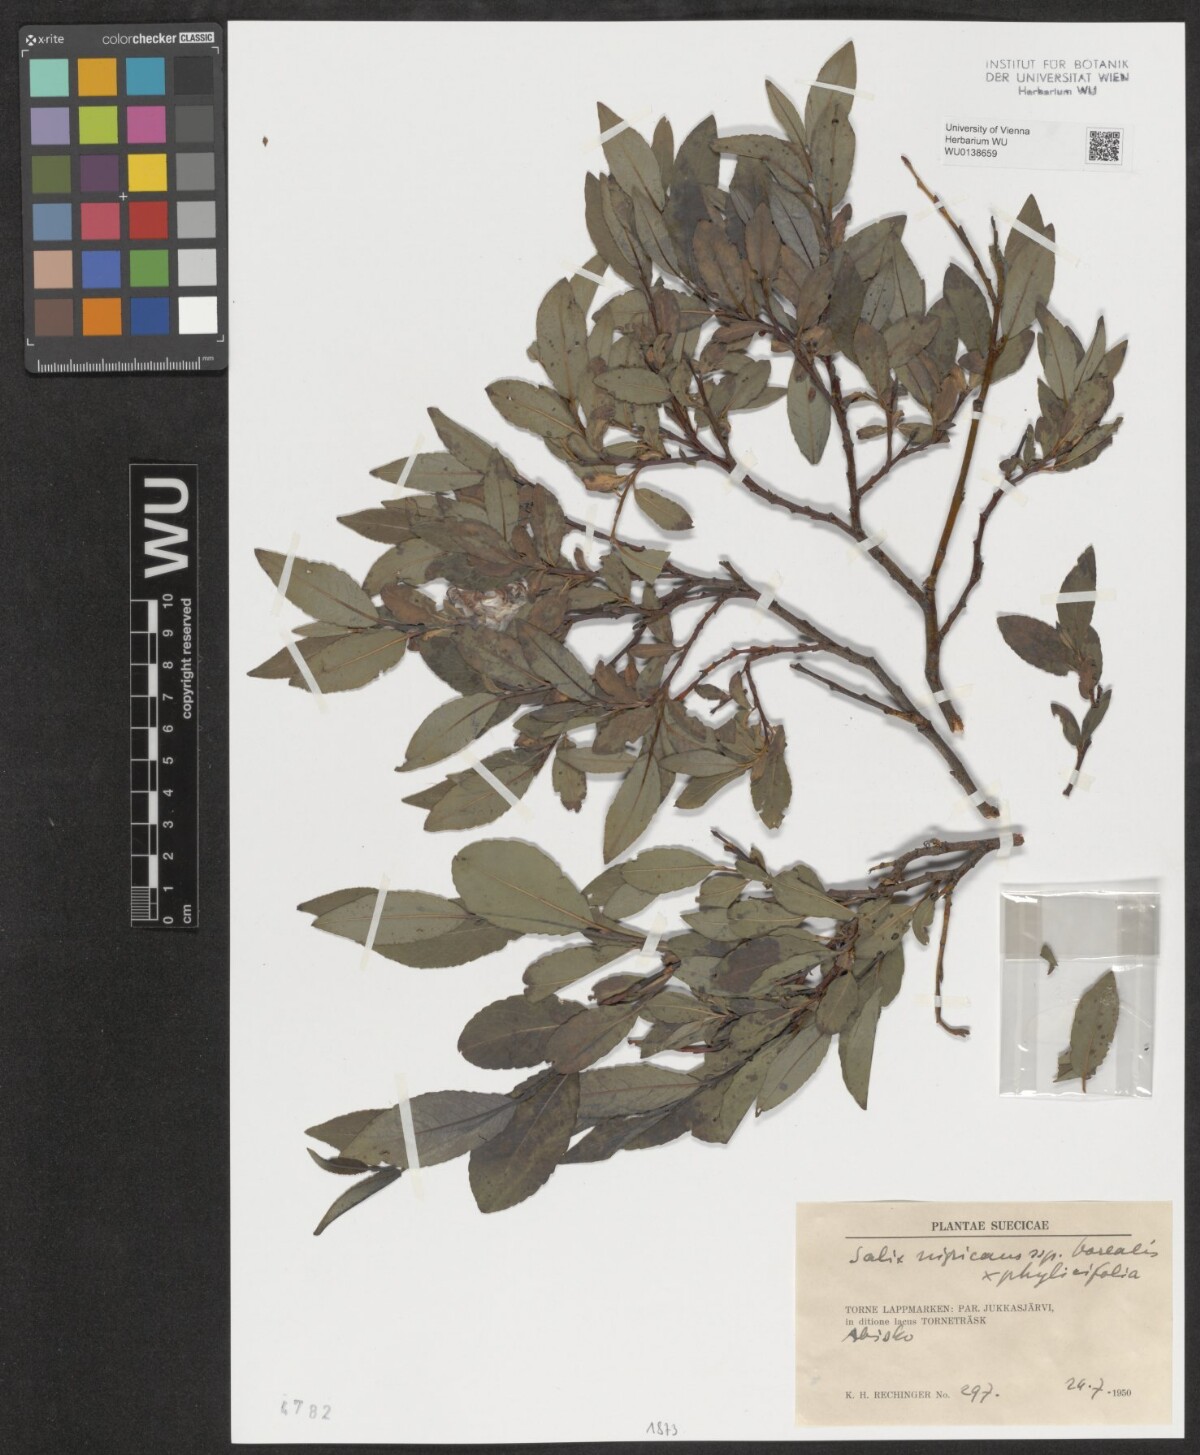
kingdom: Plantae
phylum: Tracheophyta
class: Magnoliopsida
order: Malpighiales
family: Salicaceae
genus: Salix
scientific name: Salix
